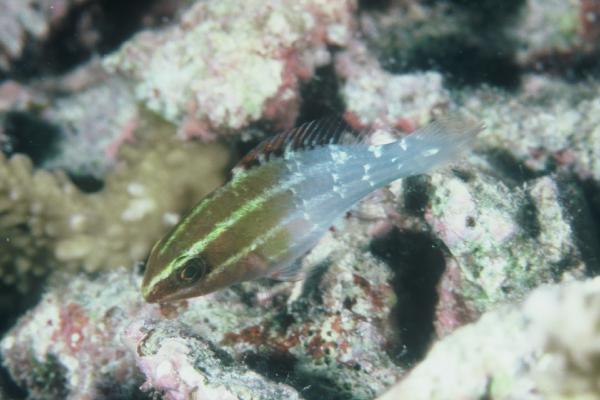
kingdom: Animalia
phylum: Chordata
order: Perciformes
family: Scaridae
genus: Scarus
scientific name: Scarus frenatus
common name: Bridled parrotfish
